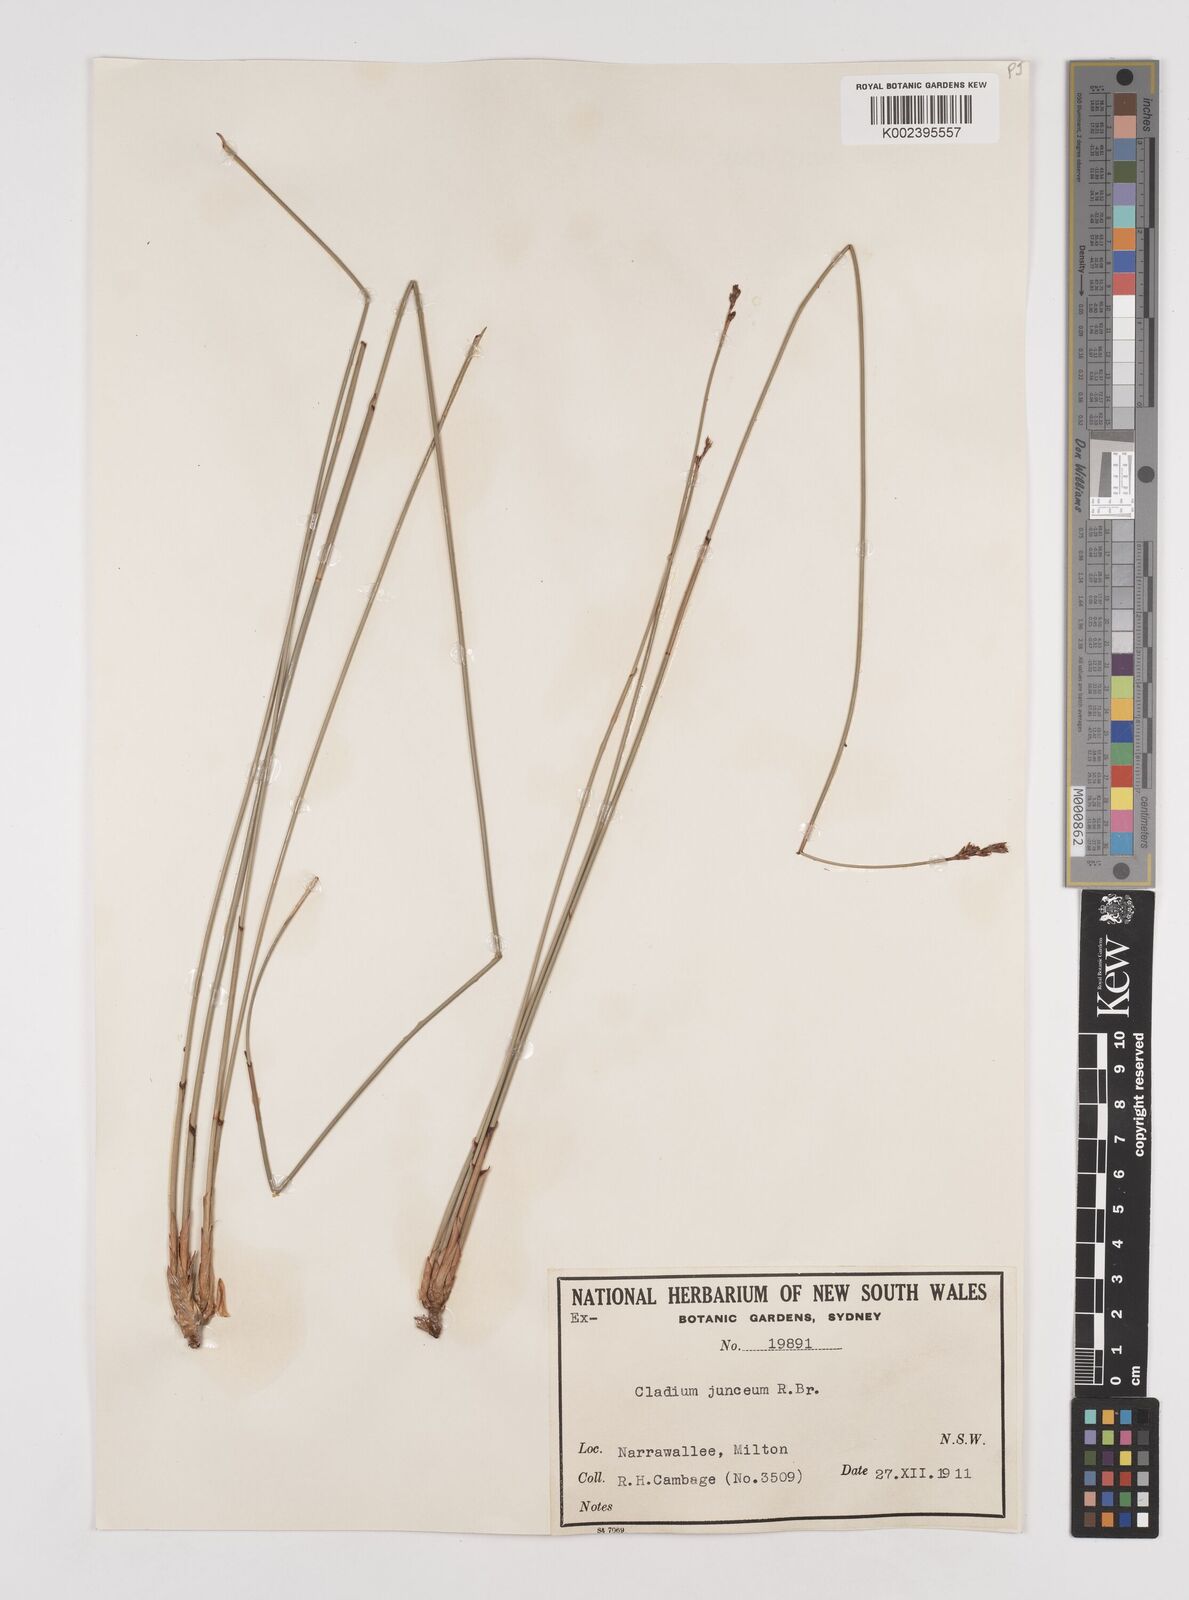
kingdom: Plantae
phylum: Tracheophyta
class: Liliopsida
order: Poales
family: Cyperaceae
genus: Machaerina
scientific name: Machaerina juncea
